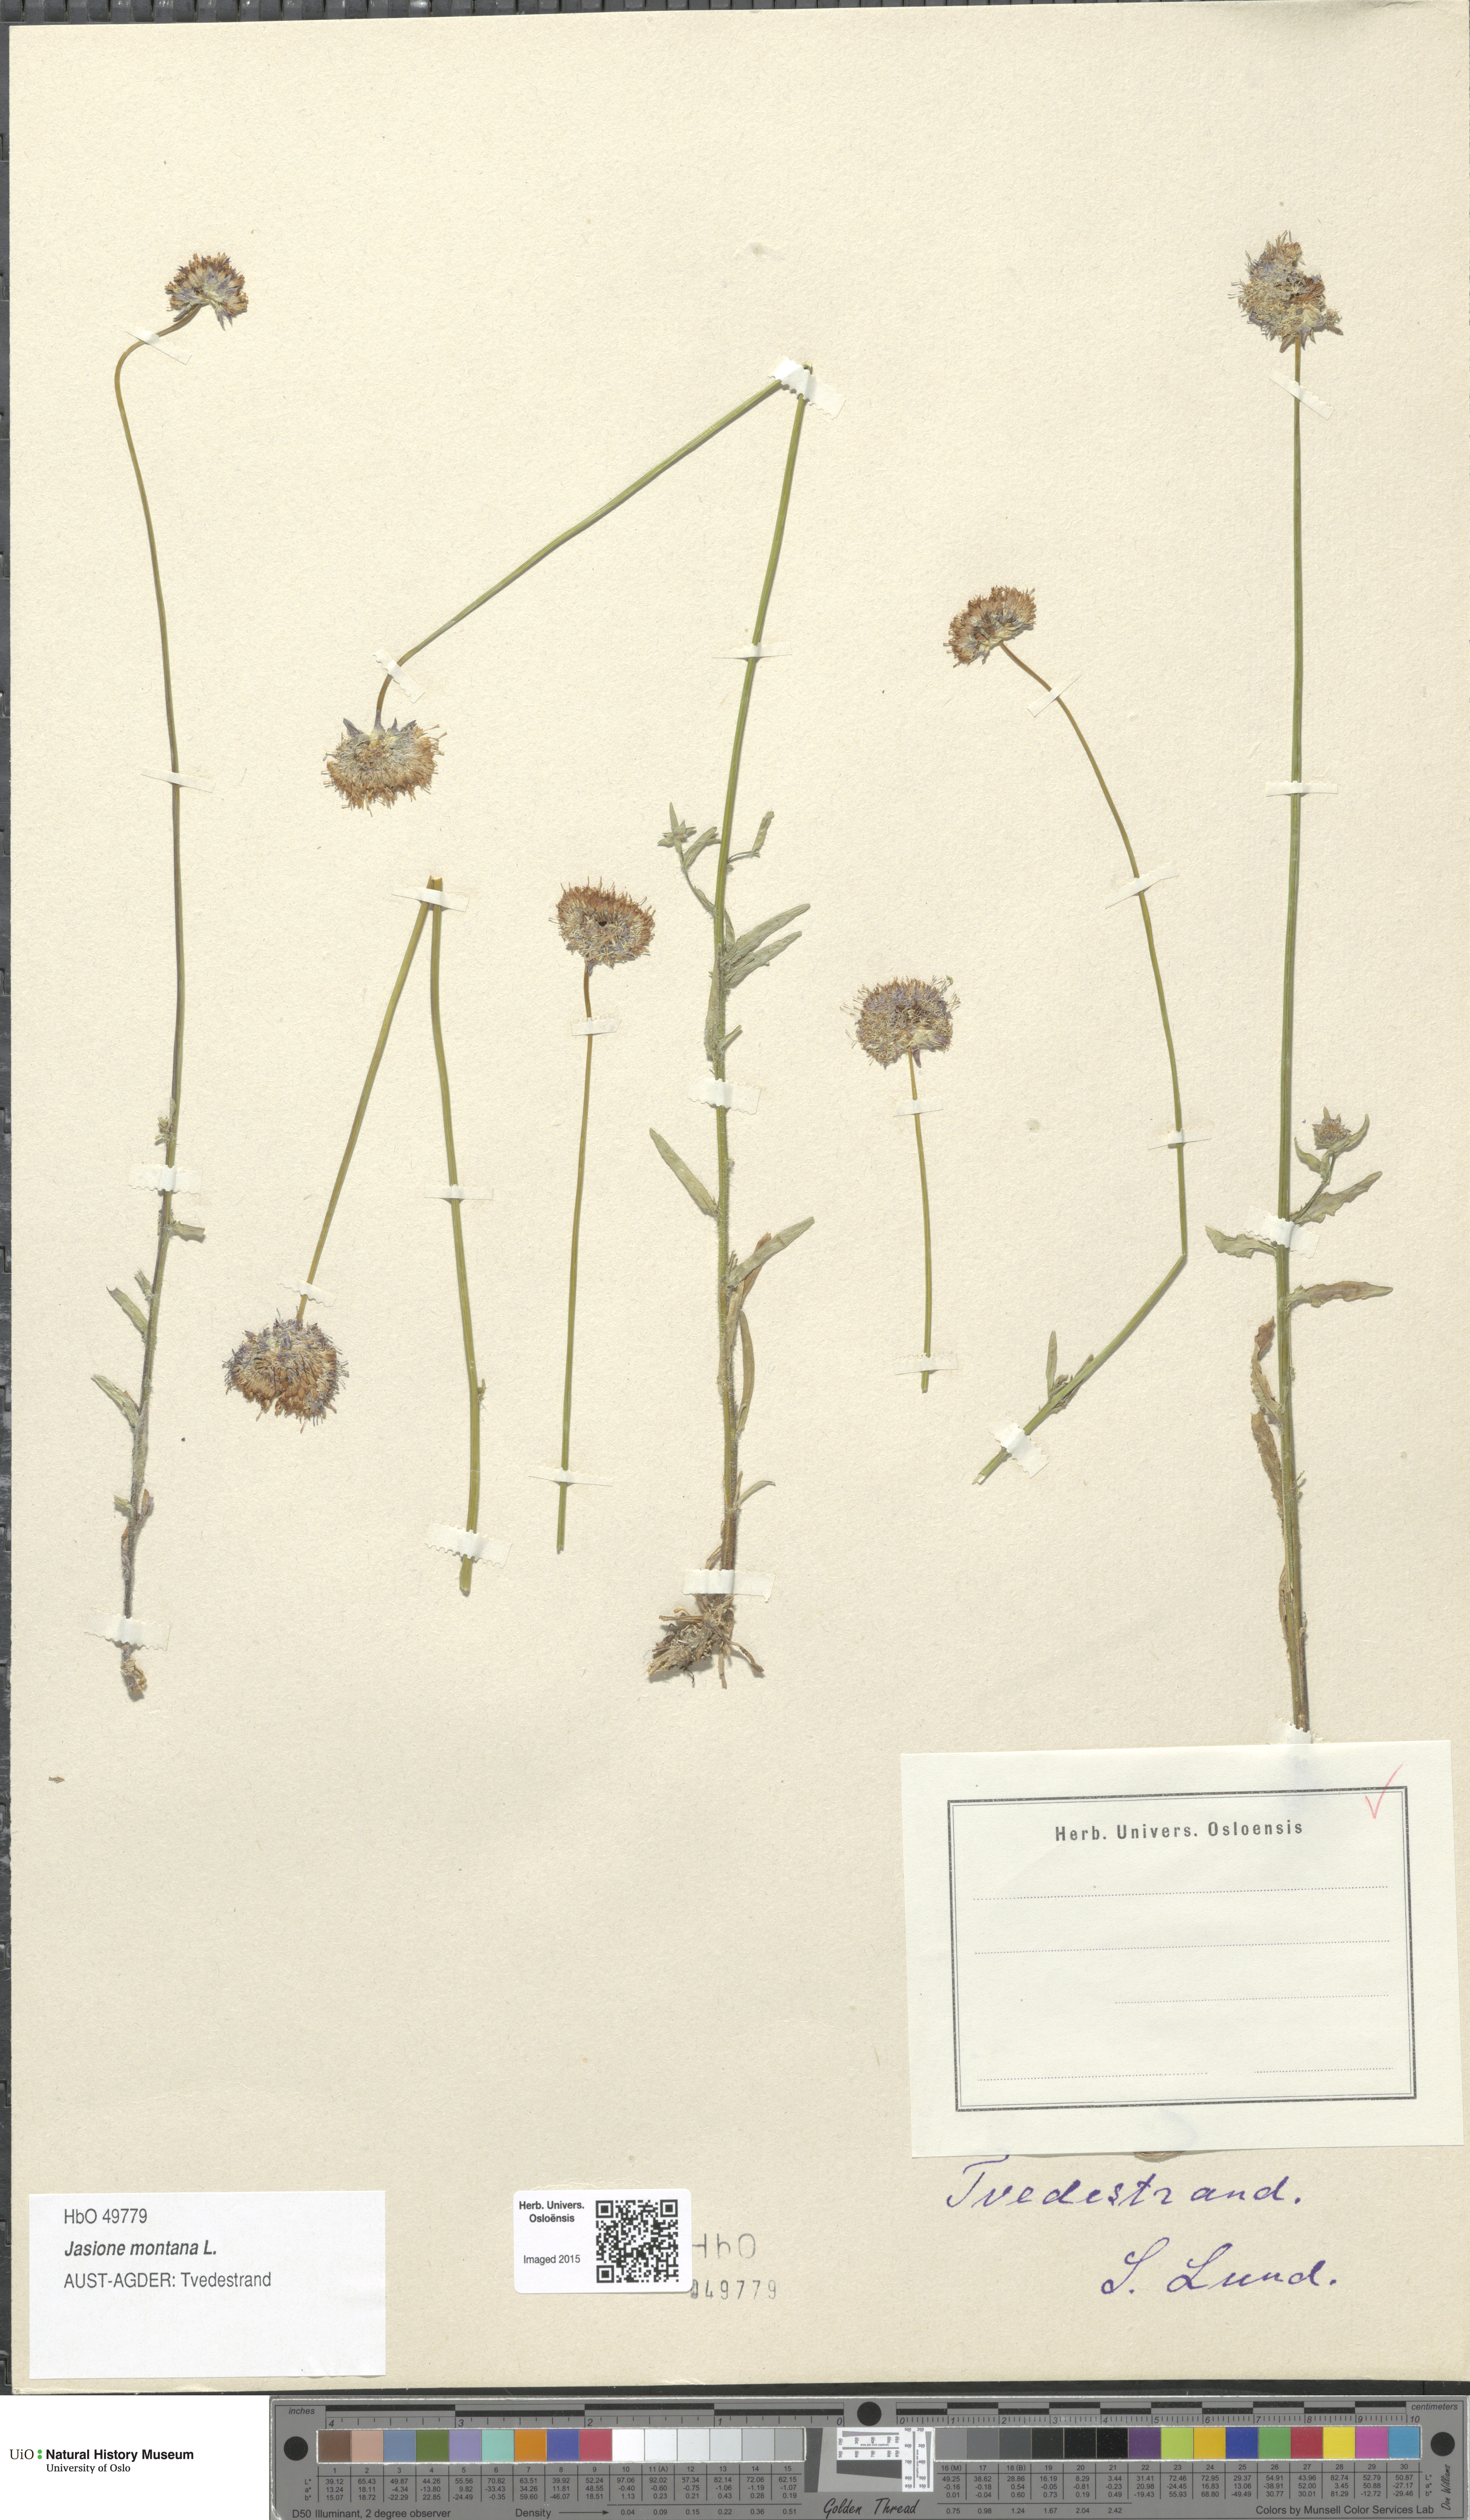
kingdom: Plantae
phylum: Tracheophyta
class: Magnoliopsida
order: Asterales
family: Campanulaceae
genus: Jasione
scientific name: Jasione montana
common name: Sheep's-bit
